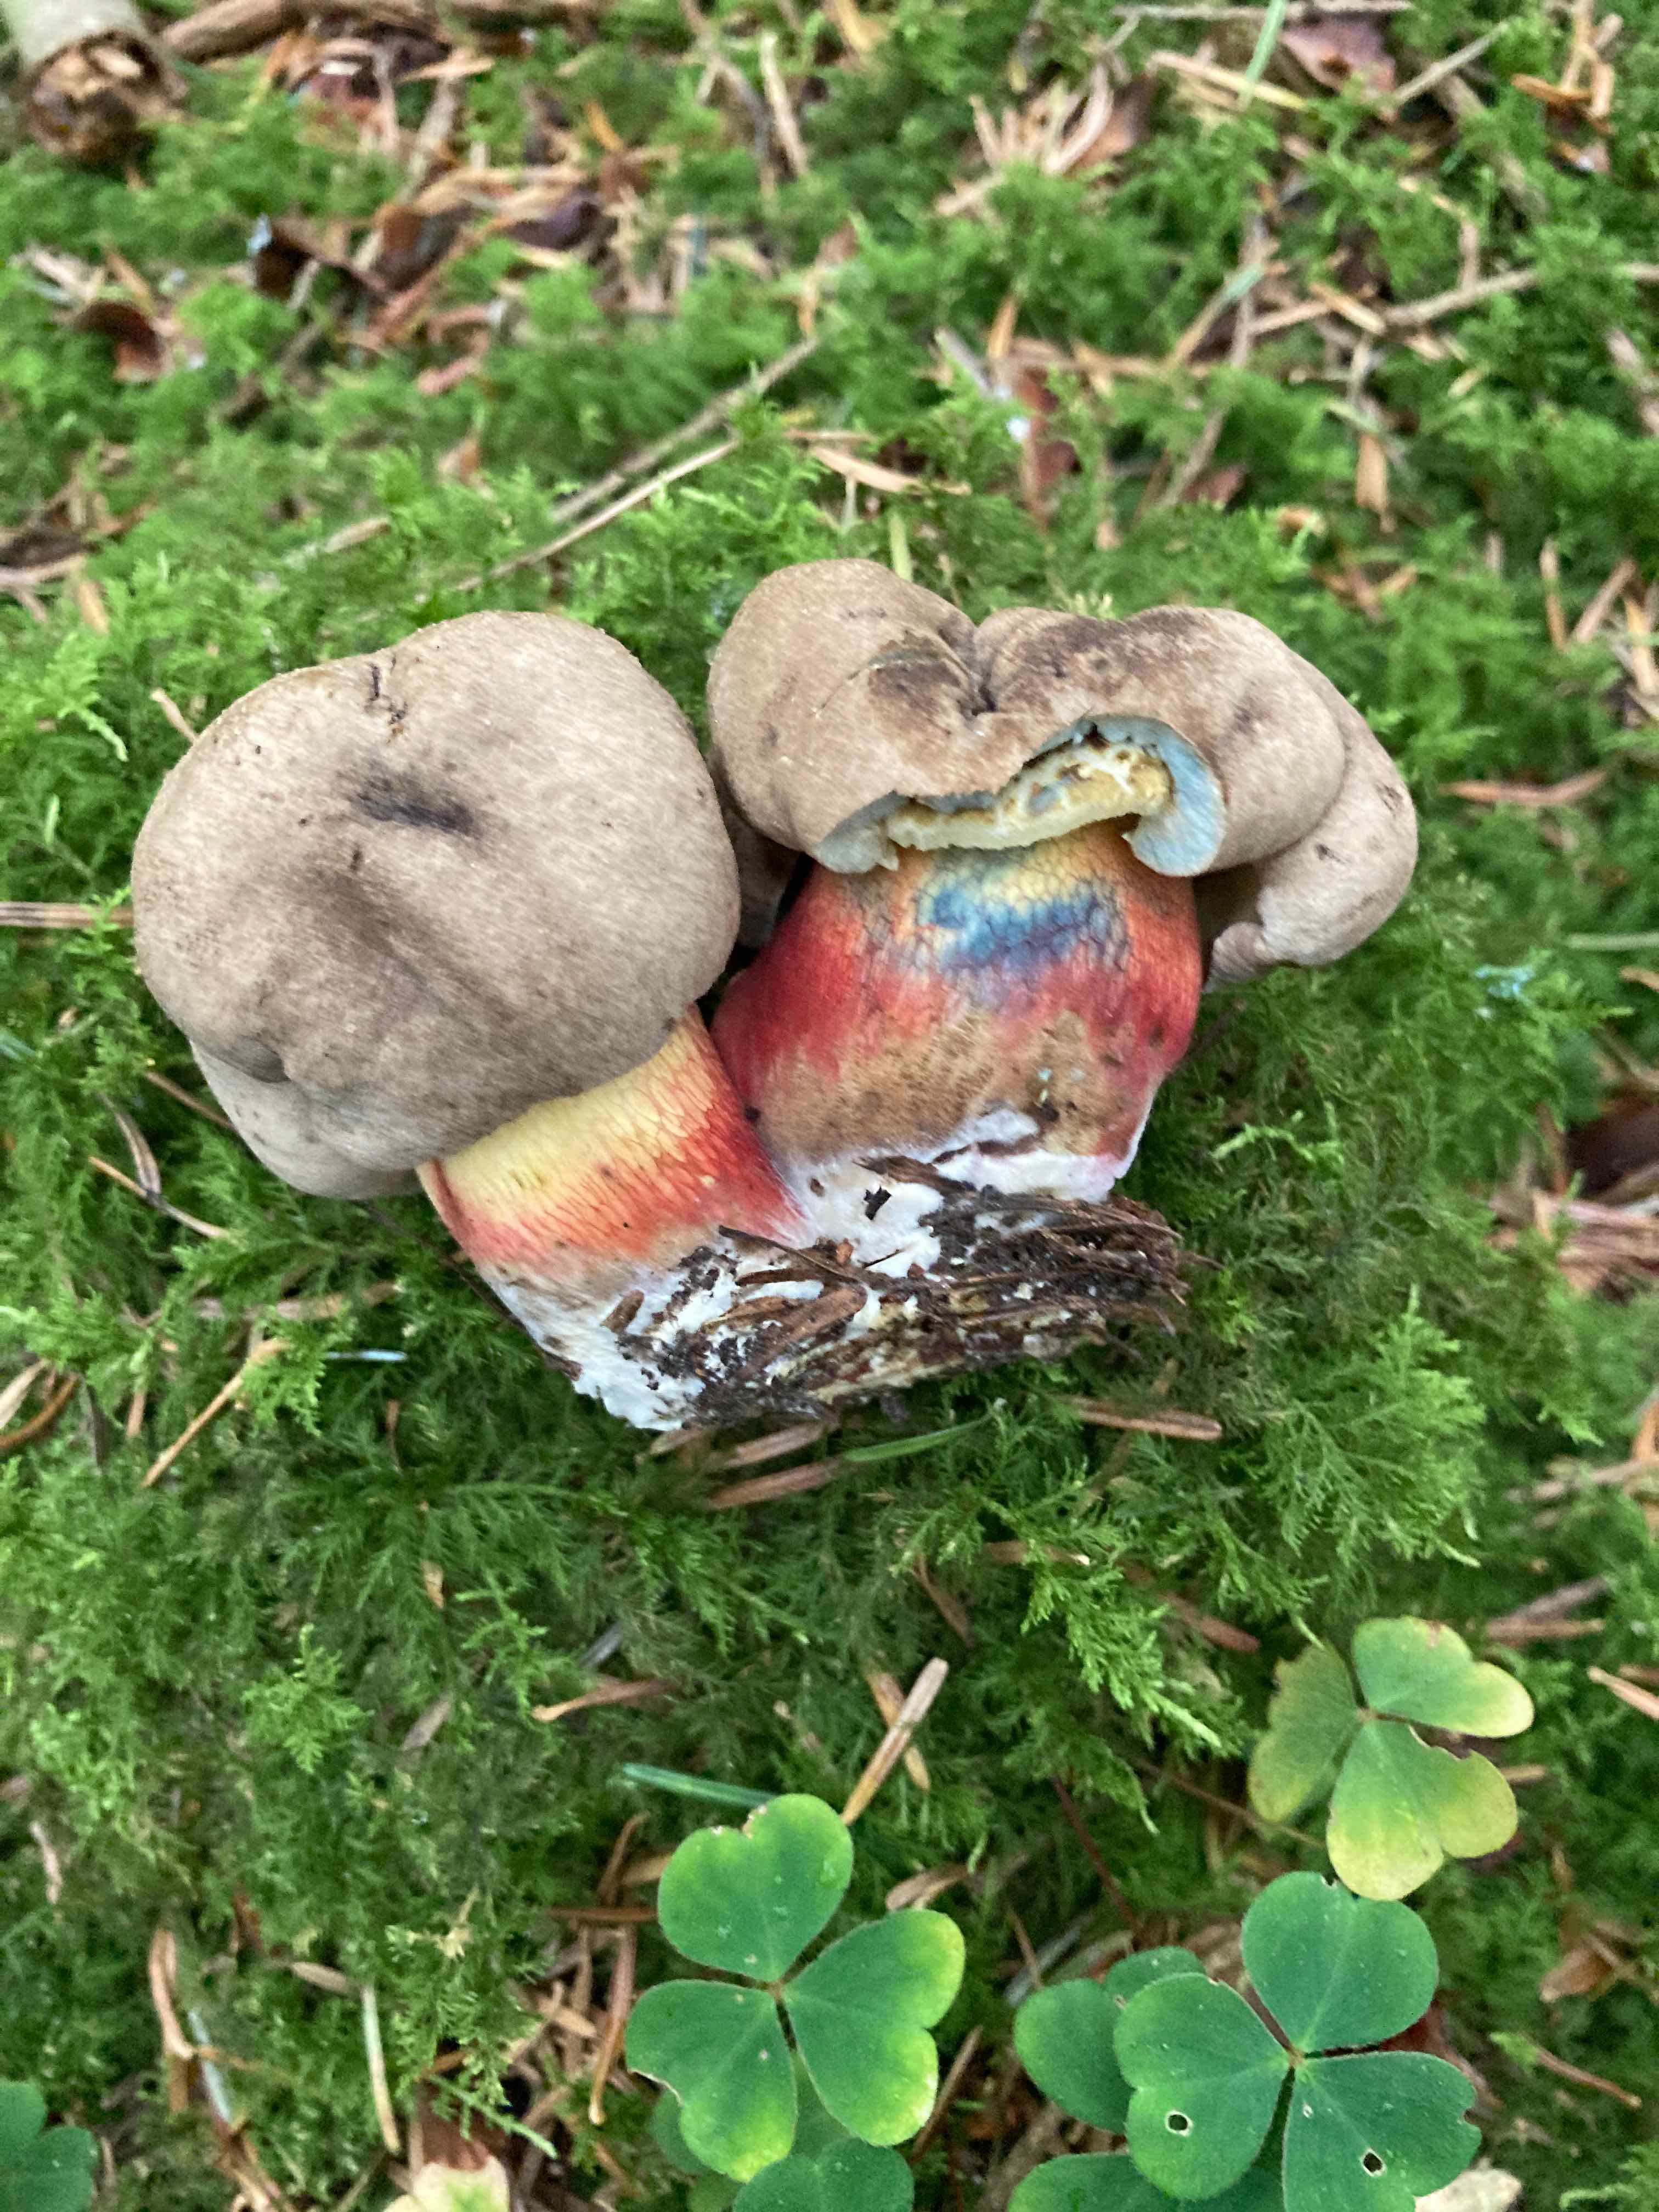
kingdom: Fungi
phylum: Basidiomycota
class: Agaricomycetes
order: Boletales
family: Boletaceae
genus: Caloboletus
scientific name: Caloboletus calopus
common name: skønfodet rørhat
